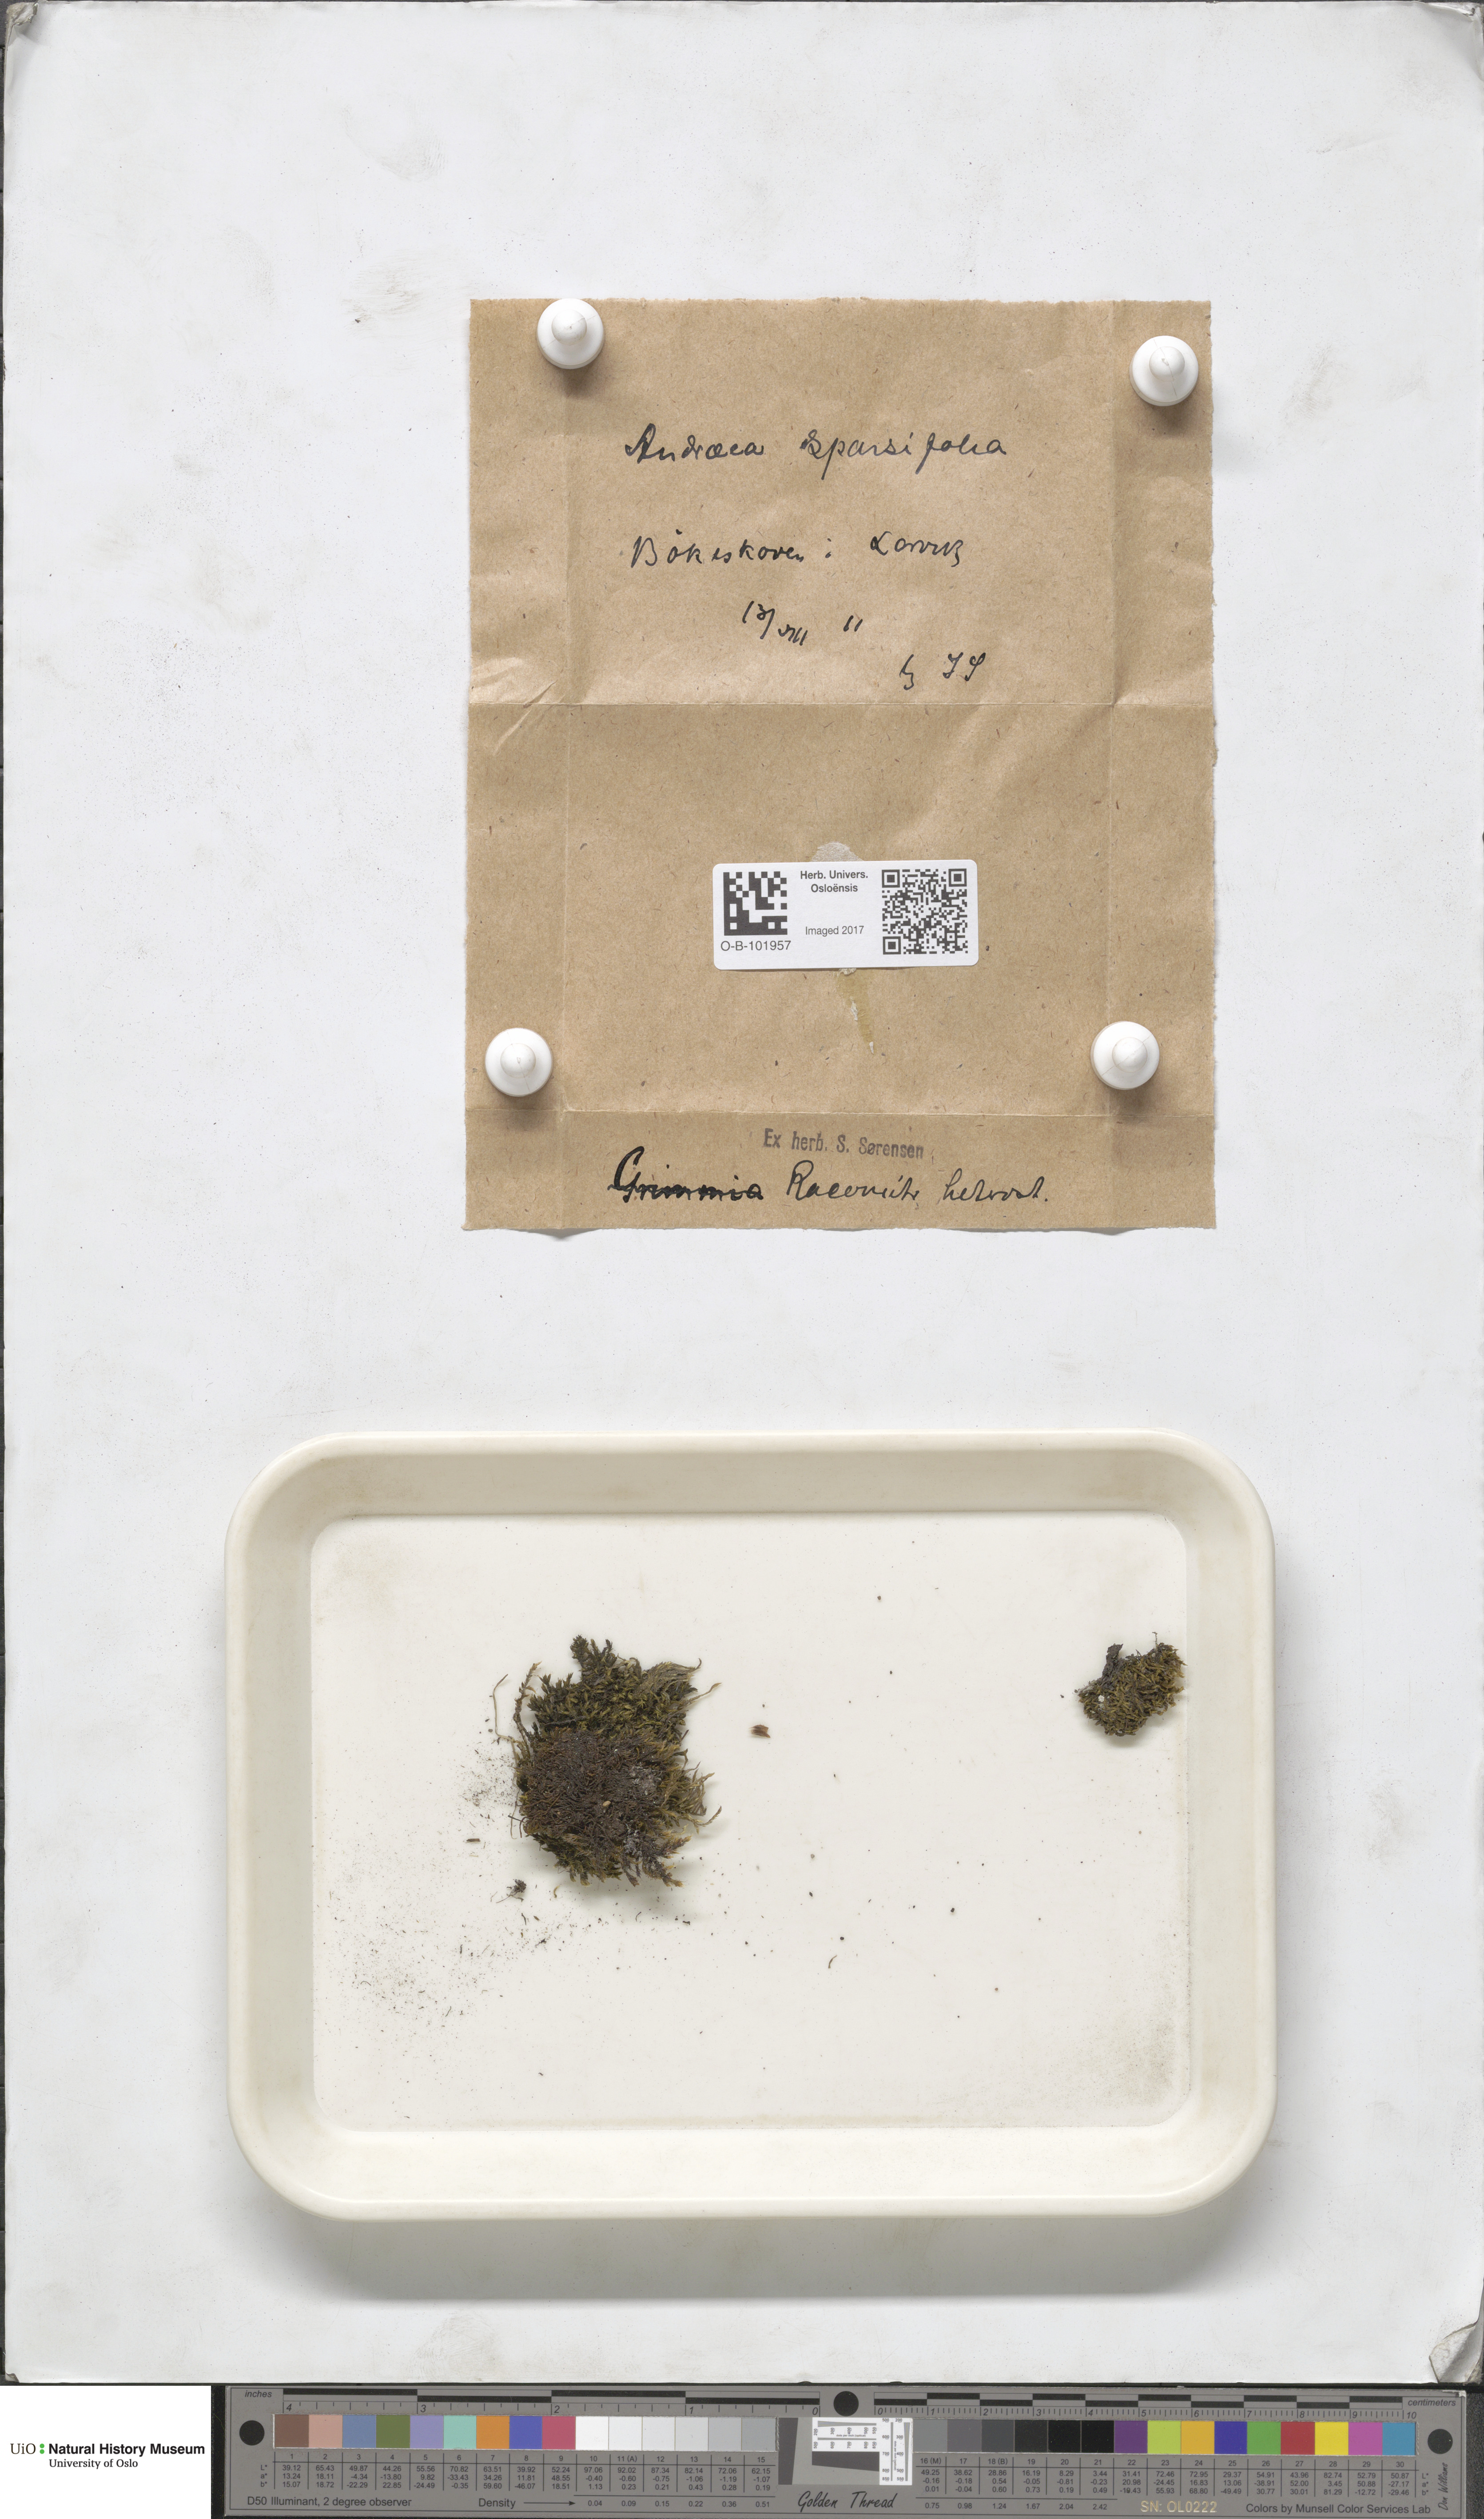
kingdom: Plantae
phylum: Bryophyta
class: Andreaeopsida
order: Andreaeales
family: Andreaeaceae
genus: Andreaea
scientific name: Andreaea rupestris
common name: Black rock moss
